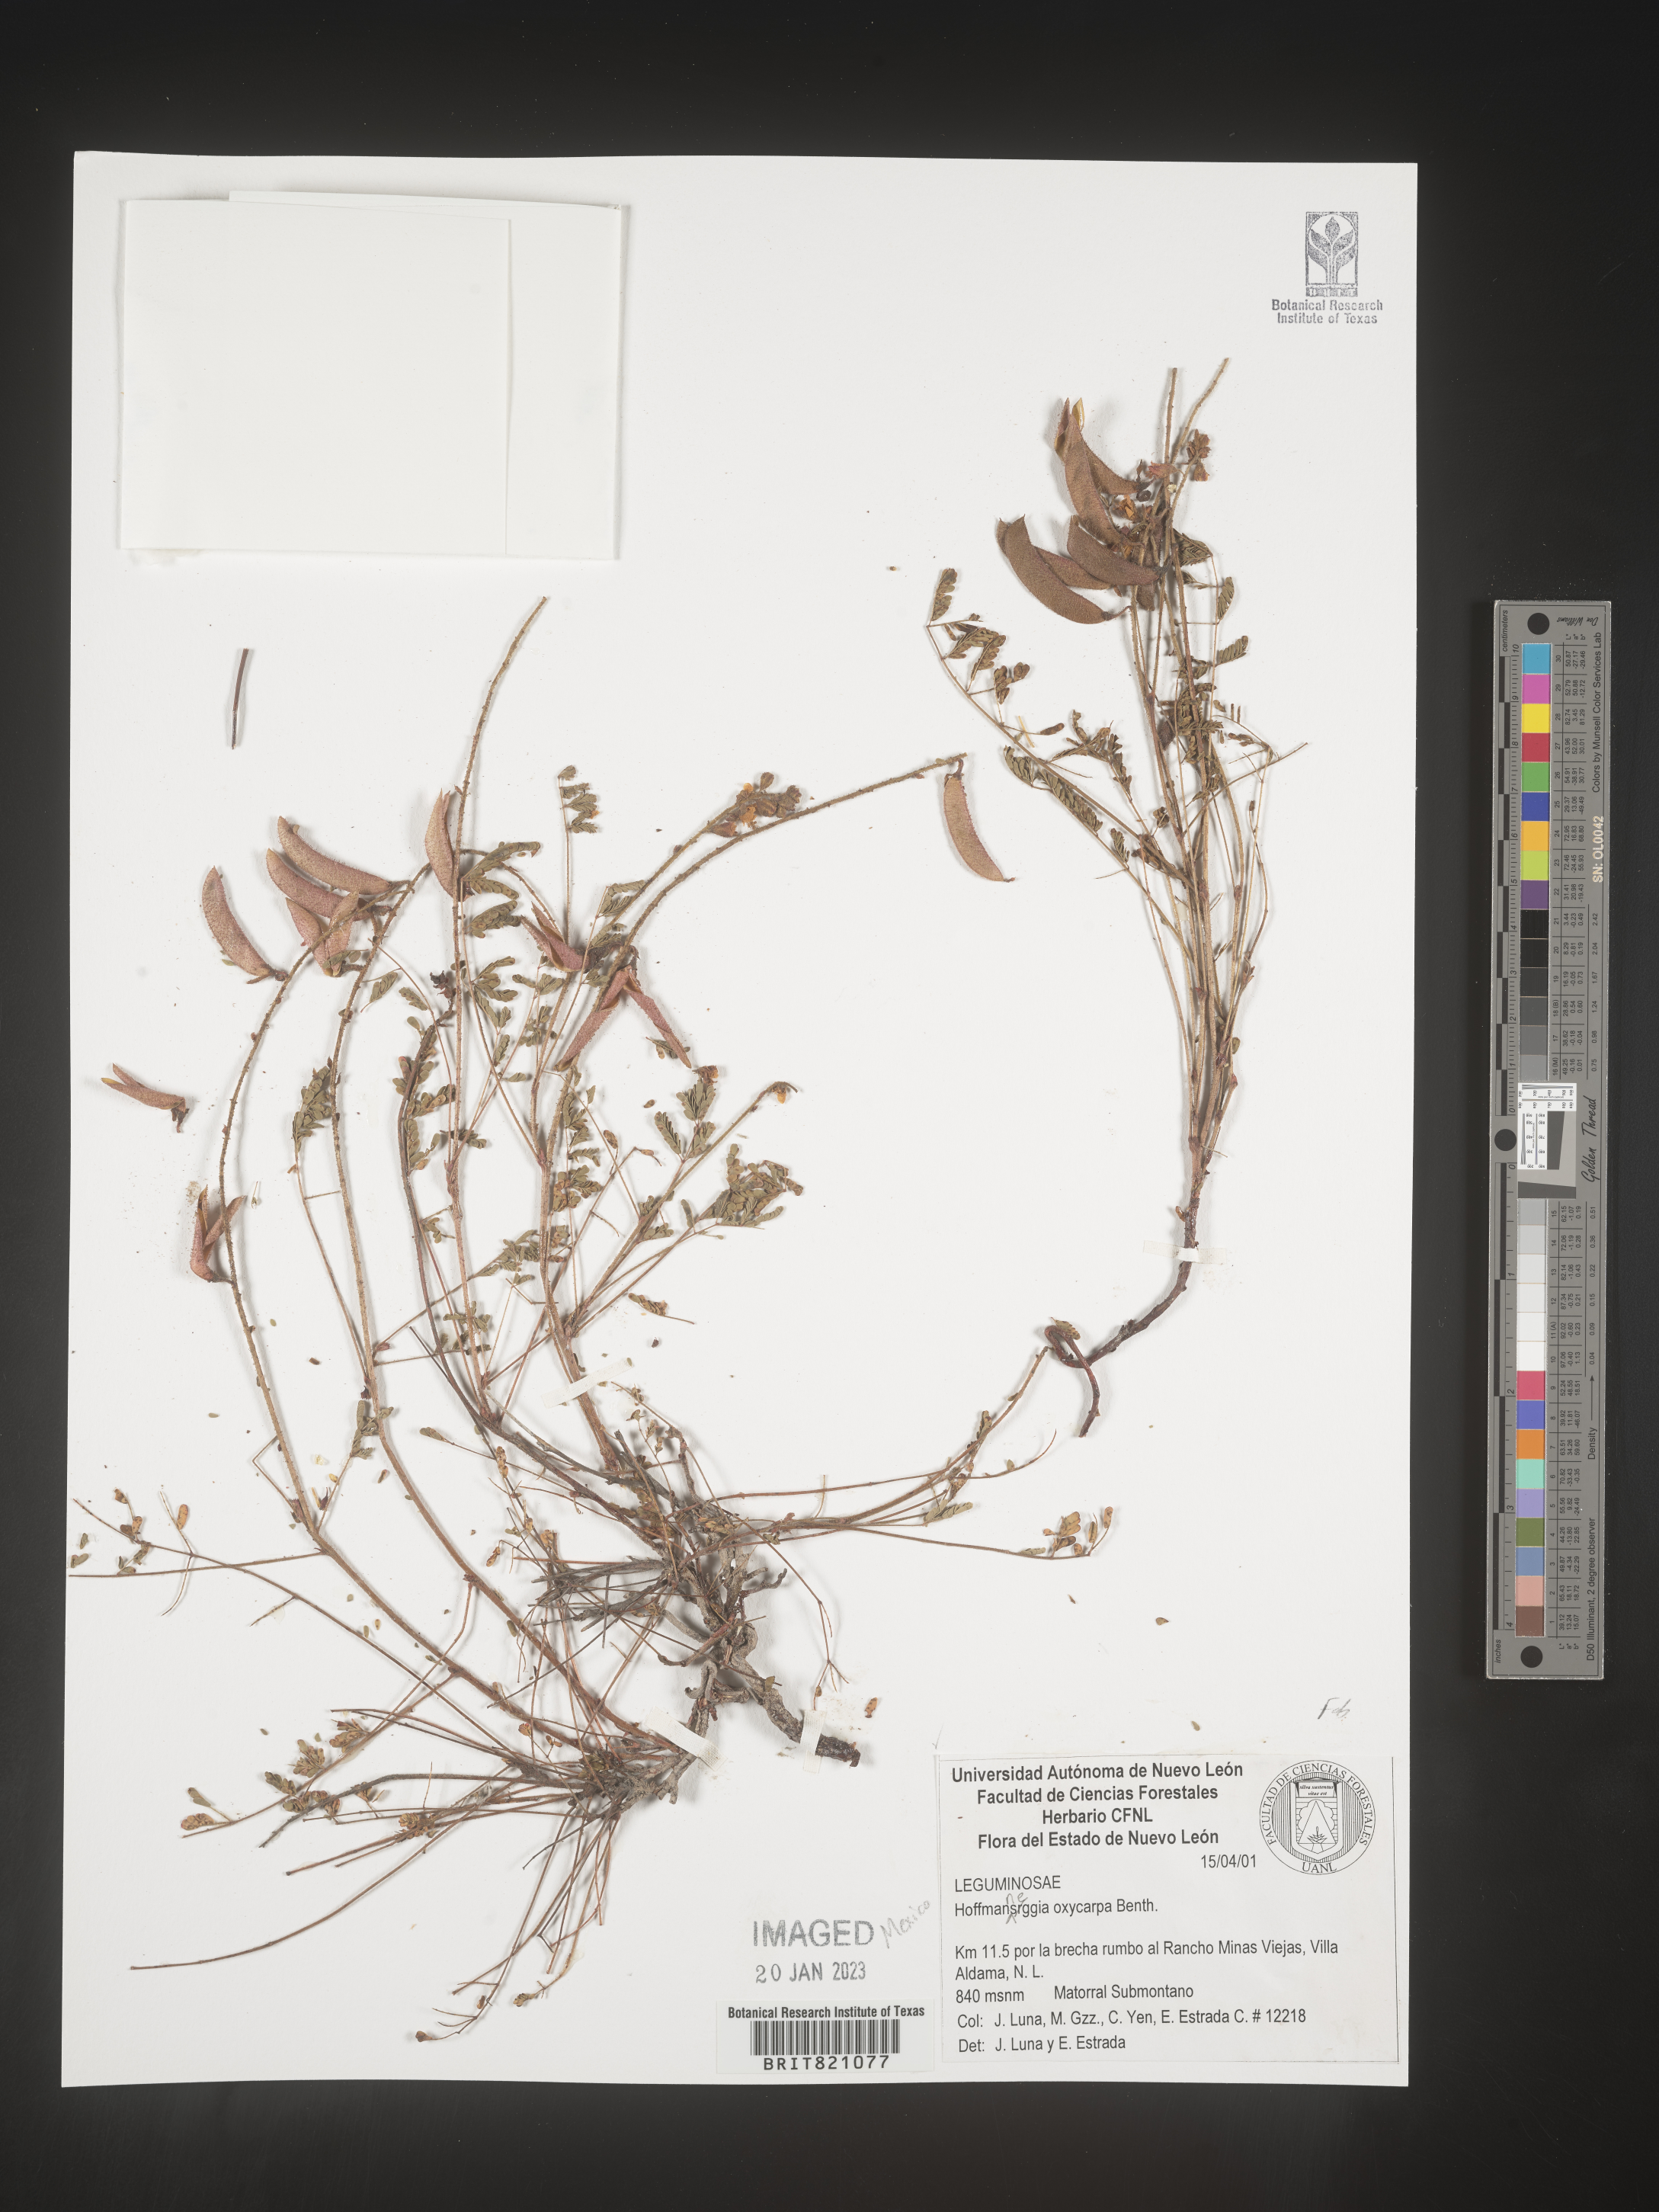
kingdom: Plantae
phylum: Tracheophyta
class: Magnoliopsida
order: Fabales
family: Fabaceae
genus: Hoffmannseggia
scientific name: Hoffmannseggia
